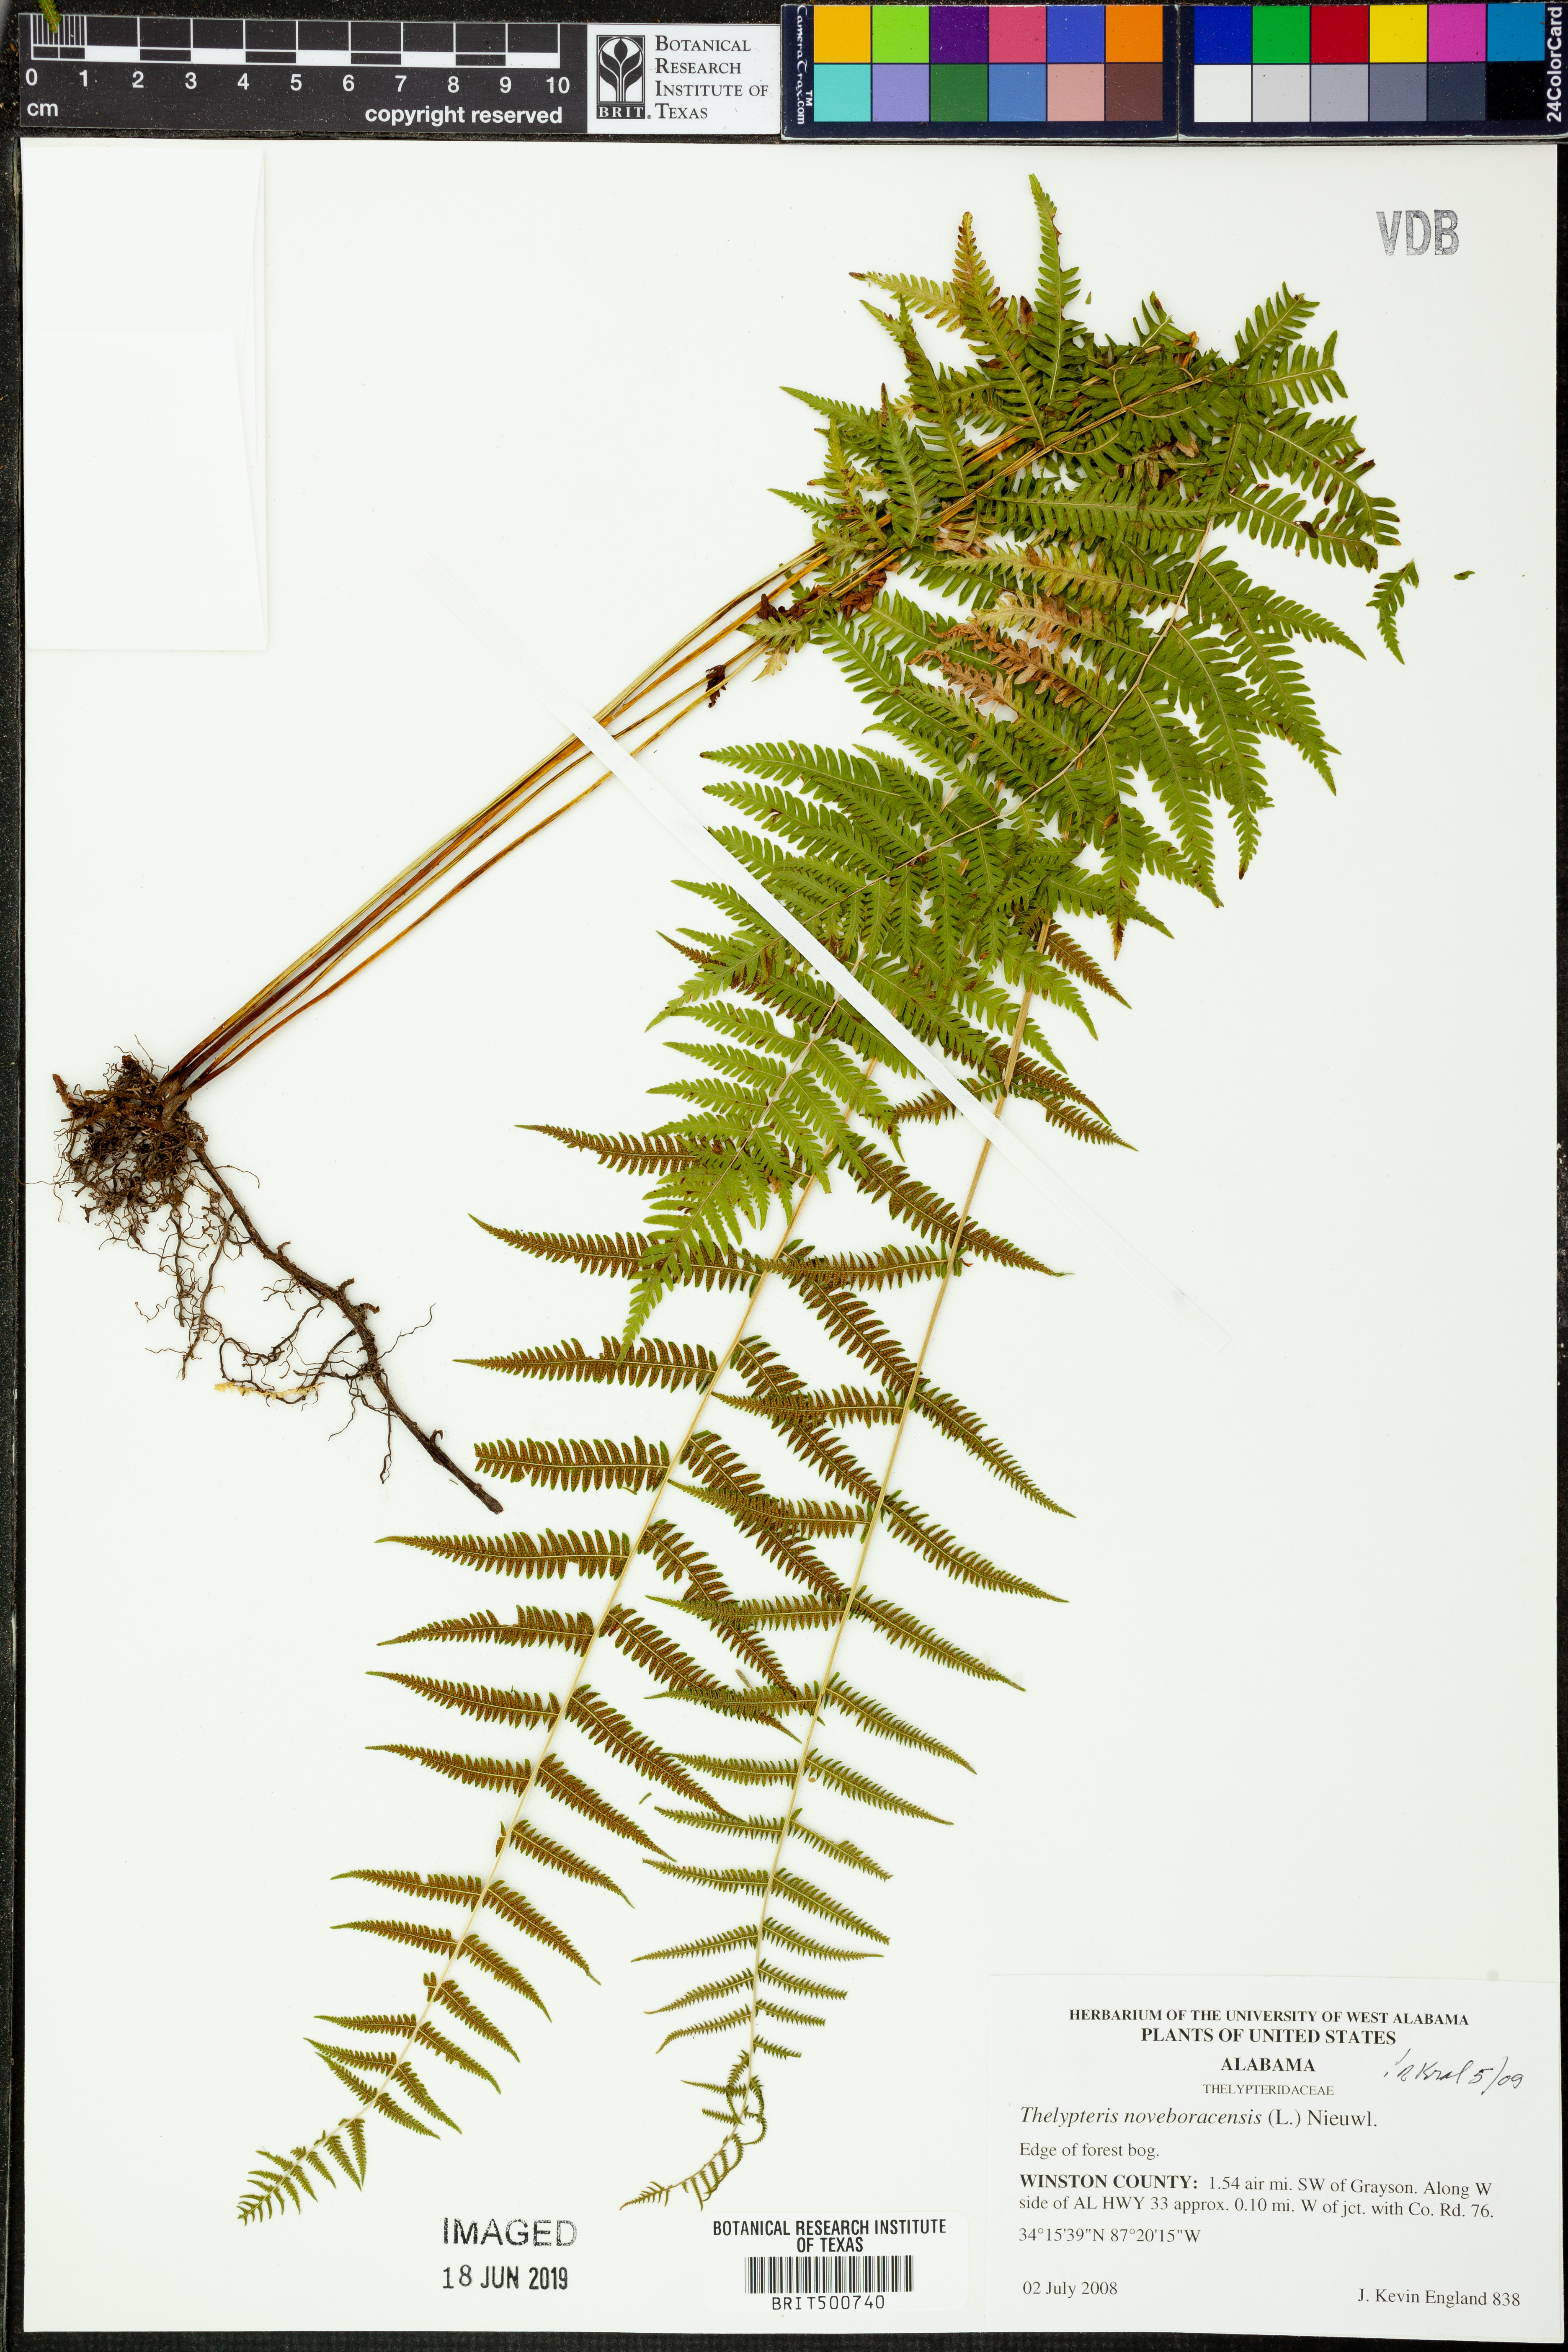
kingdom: Plantae
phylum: Tracheophyta
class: Polypodiopsida
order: Polypodiales
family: Thelypteridaceae
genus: Amauropelta
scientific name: Amauropelta noveboracensis
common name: New york fern
